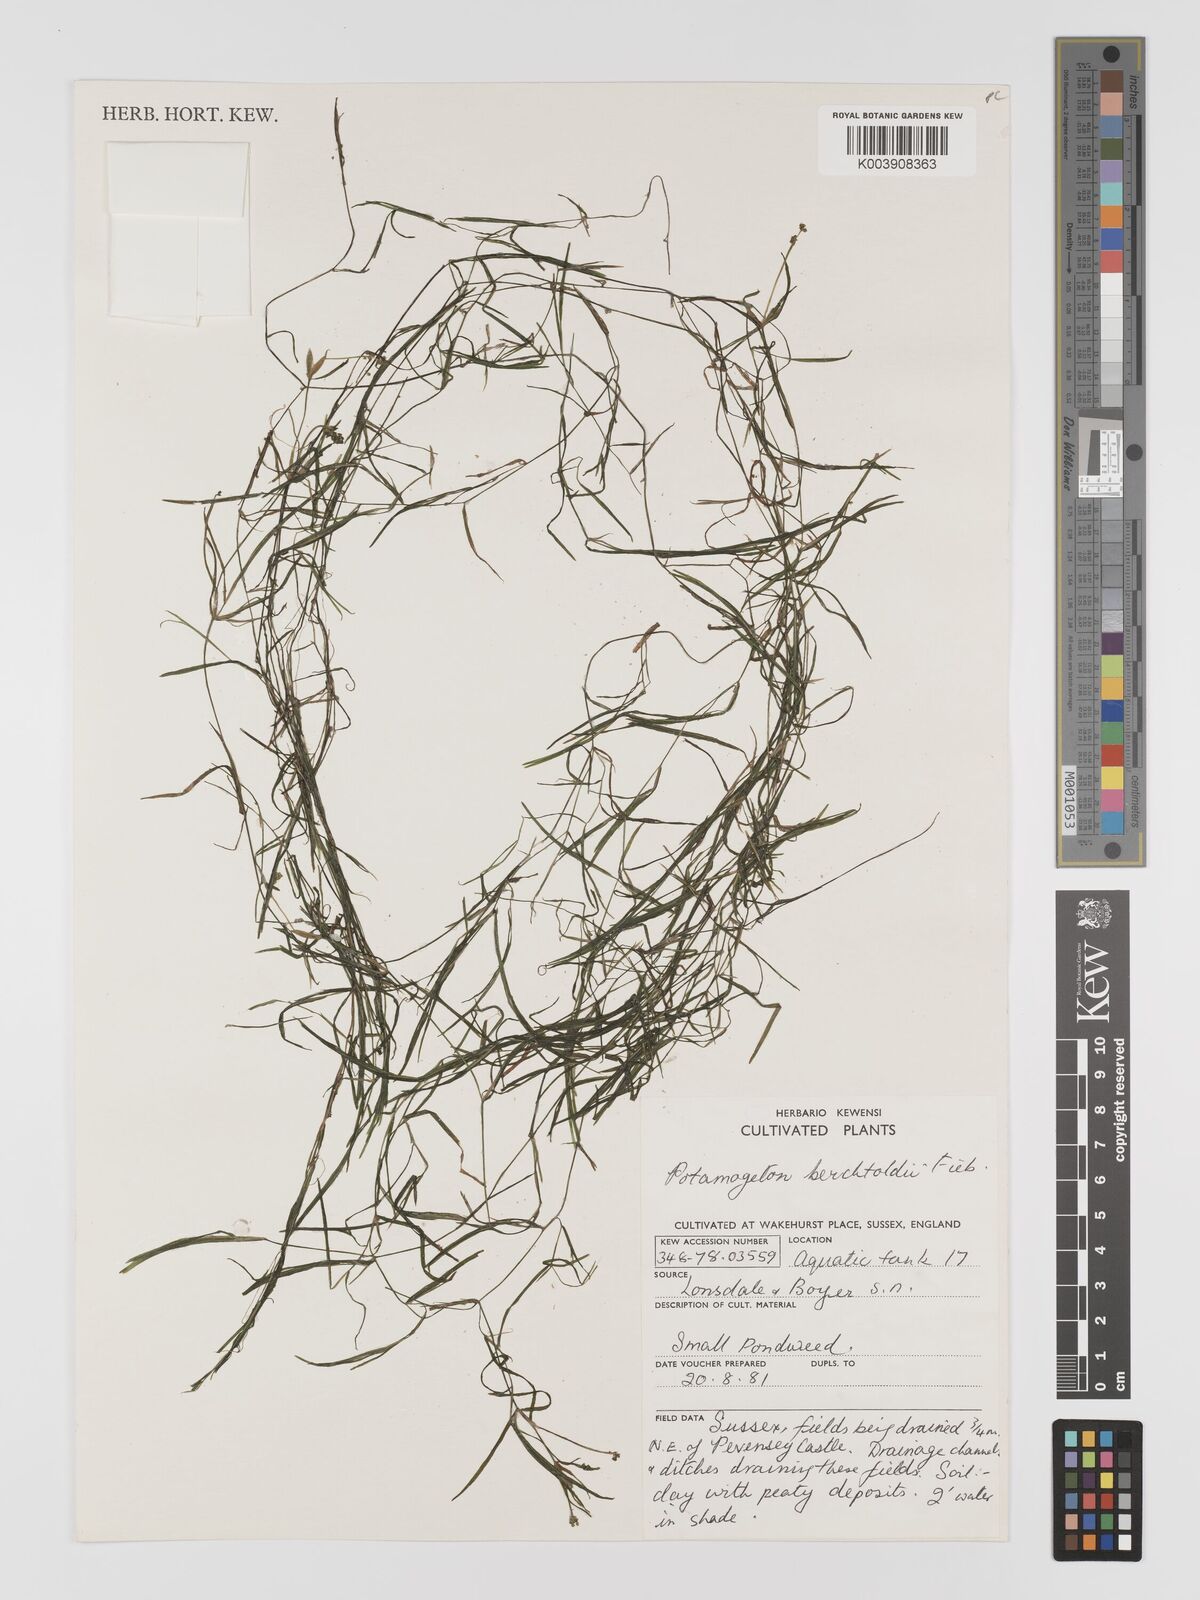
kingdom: Plantae
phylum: Tracheophyta
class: Liliopsida
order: Alismatales
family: Potamogetonaceae
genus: Potamogeton
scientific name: Potamogeton berchtoldii
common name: Small pondweed
